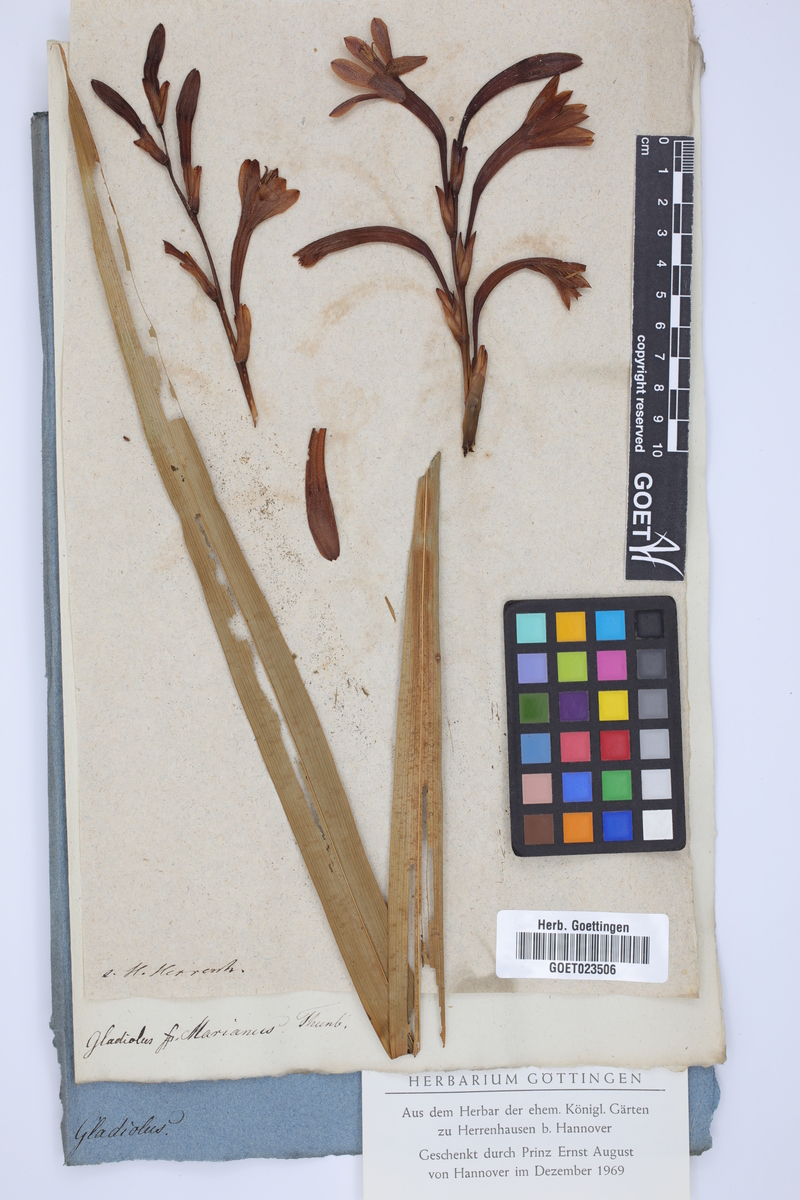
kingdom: Plantae
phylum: Tracheophyta
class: Liliopsida
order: Asparagales
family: Iridaceae
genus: Watsonia
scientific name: Watsonia meriana
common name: Bulbil bugle-lily
